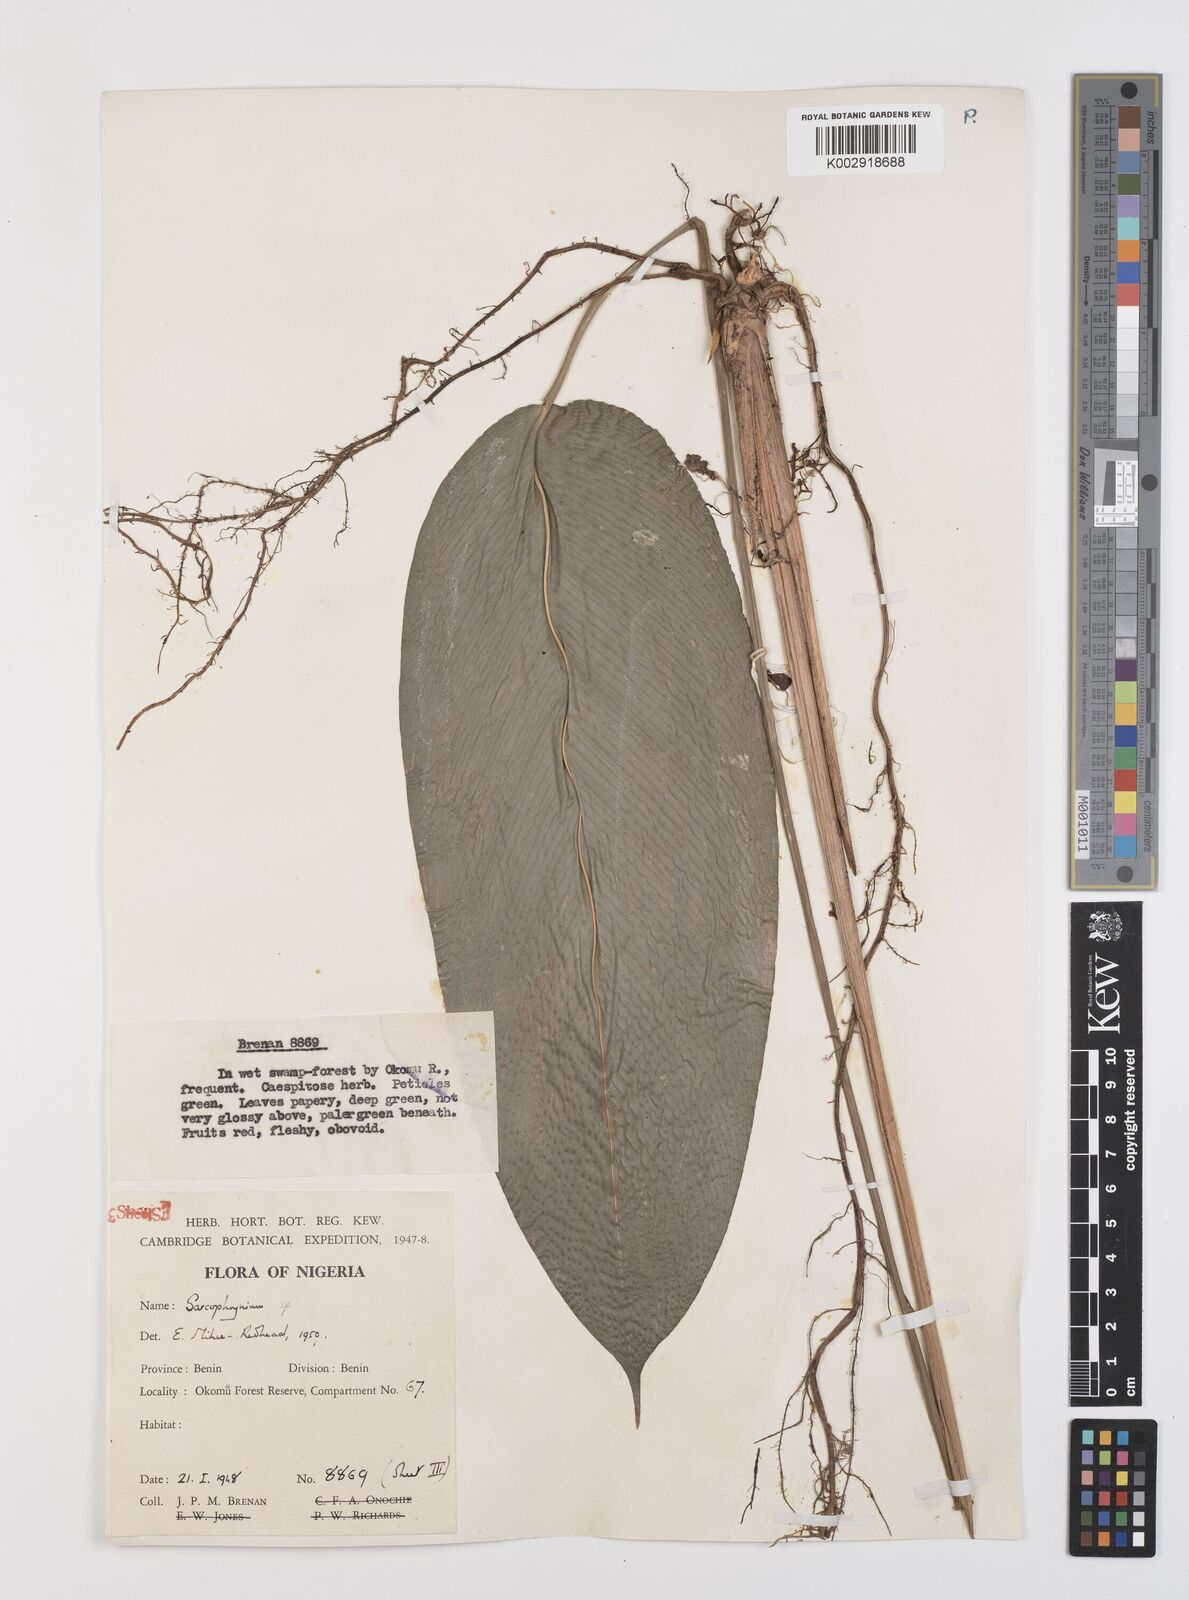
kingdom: Plantae
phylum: Tracheophyta
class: Liliopsida
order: Zingiberales
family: Marantaceae
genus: Sarcophrynium
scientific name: Sarcophrynium prionogonium
